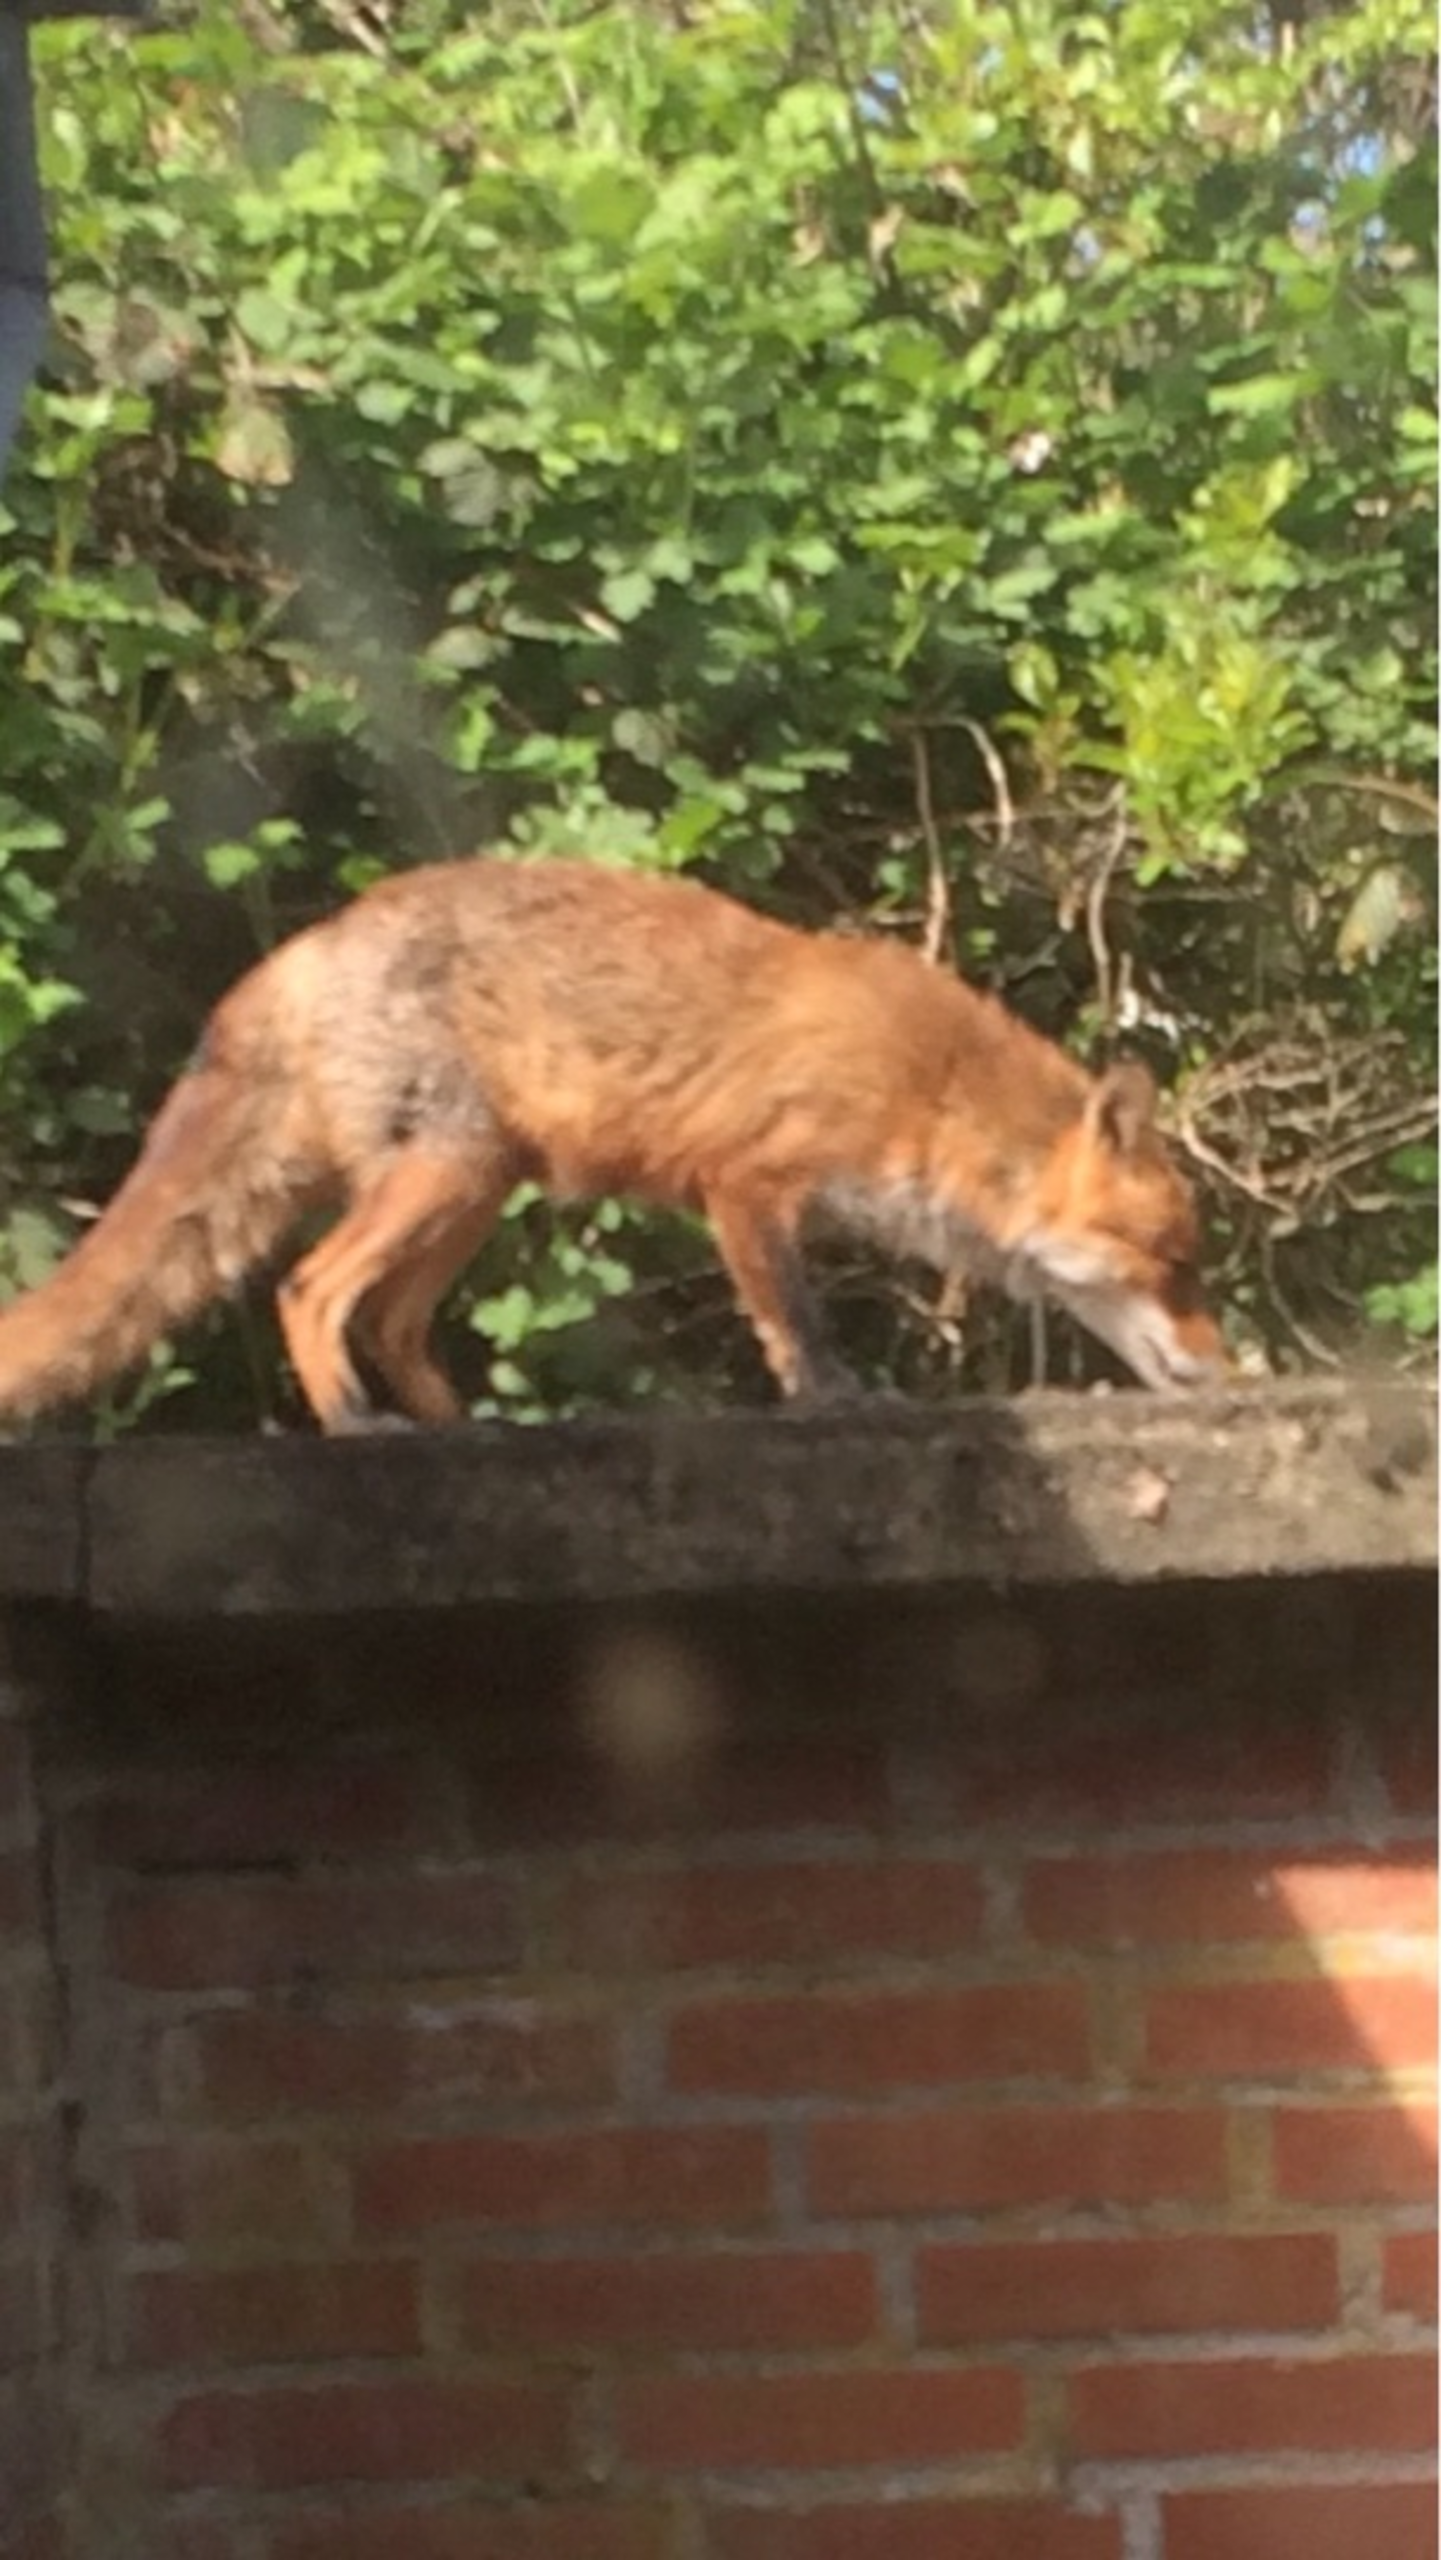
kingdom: Animalia
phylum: Chordata
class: Mammalia
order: Carnivora
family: Canidae
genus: Vulpes
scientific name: Vulpes vulpes
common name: Ræv
